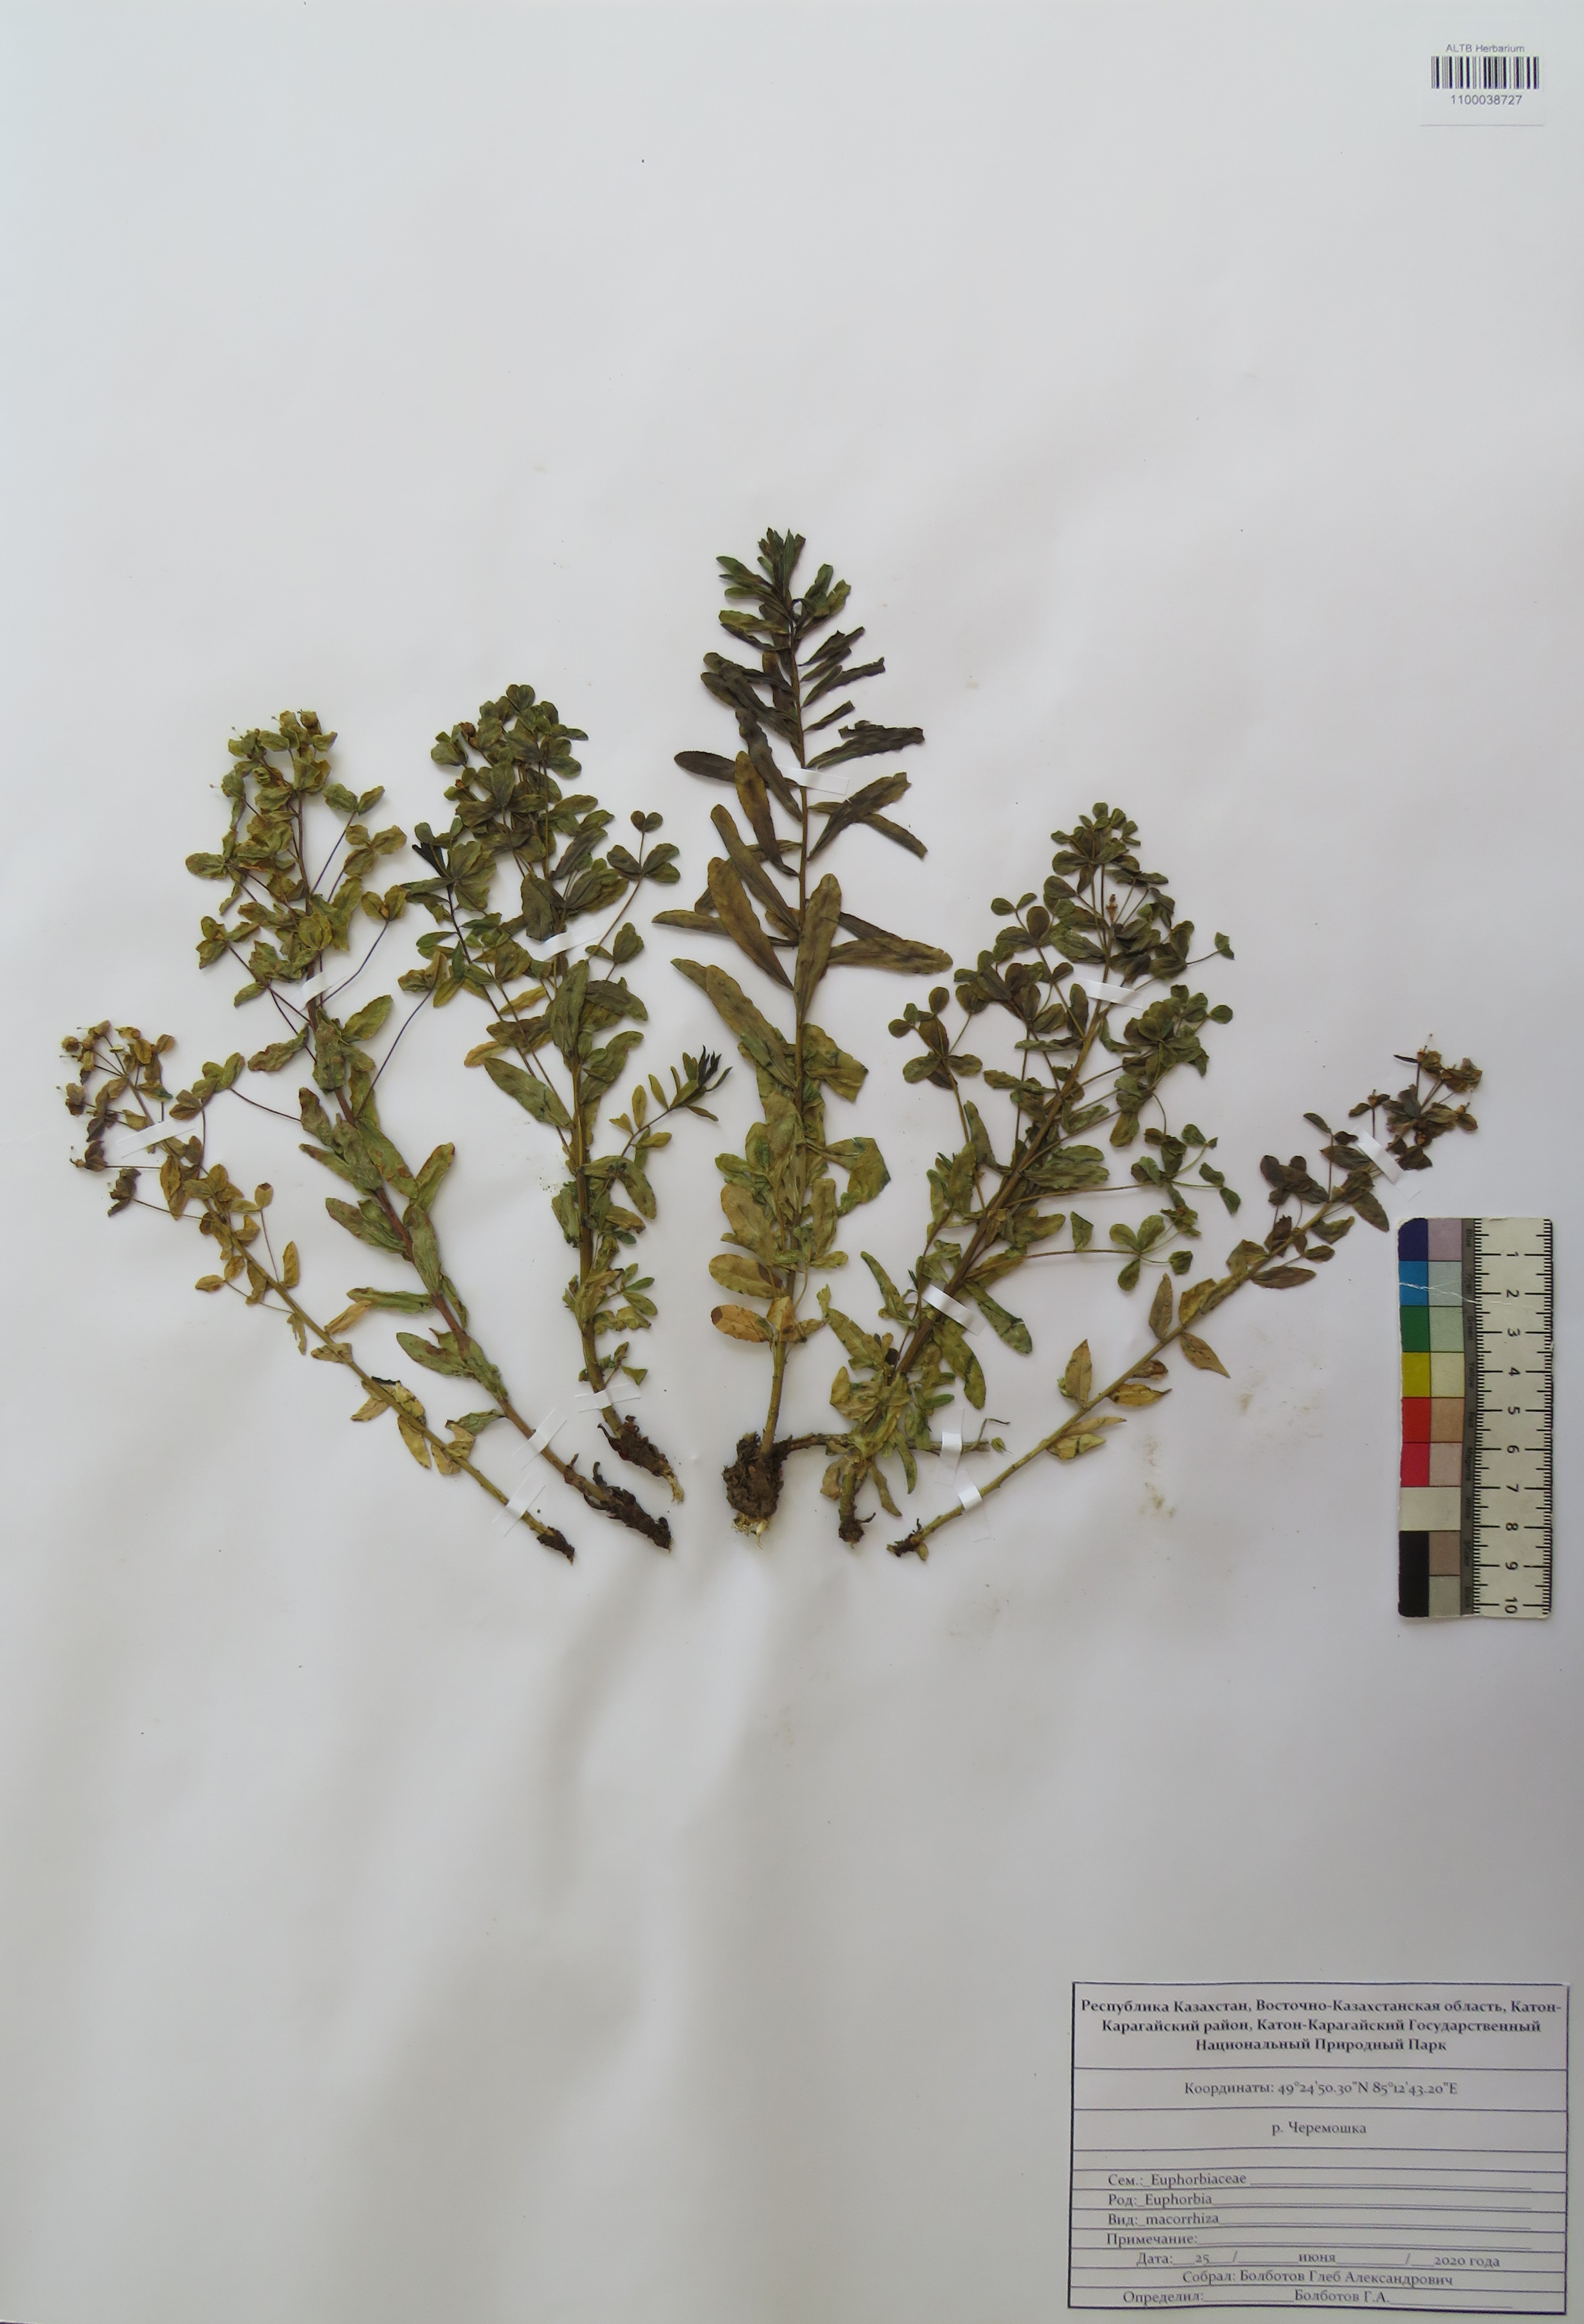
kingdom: Plantae
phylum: Tracheophyta
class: Magnoliopsida
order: Malpighiales
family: Euphorbiaceae
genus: Euphorbia
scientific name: Euphorbia macrorhiza
